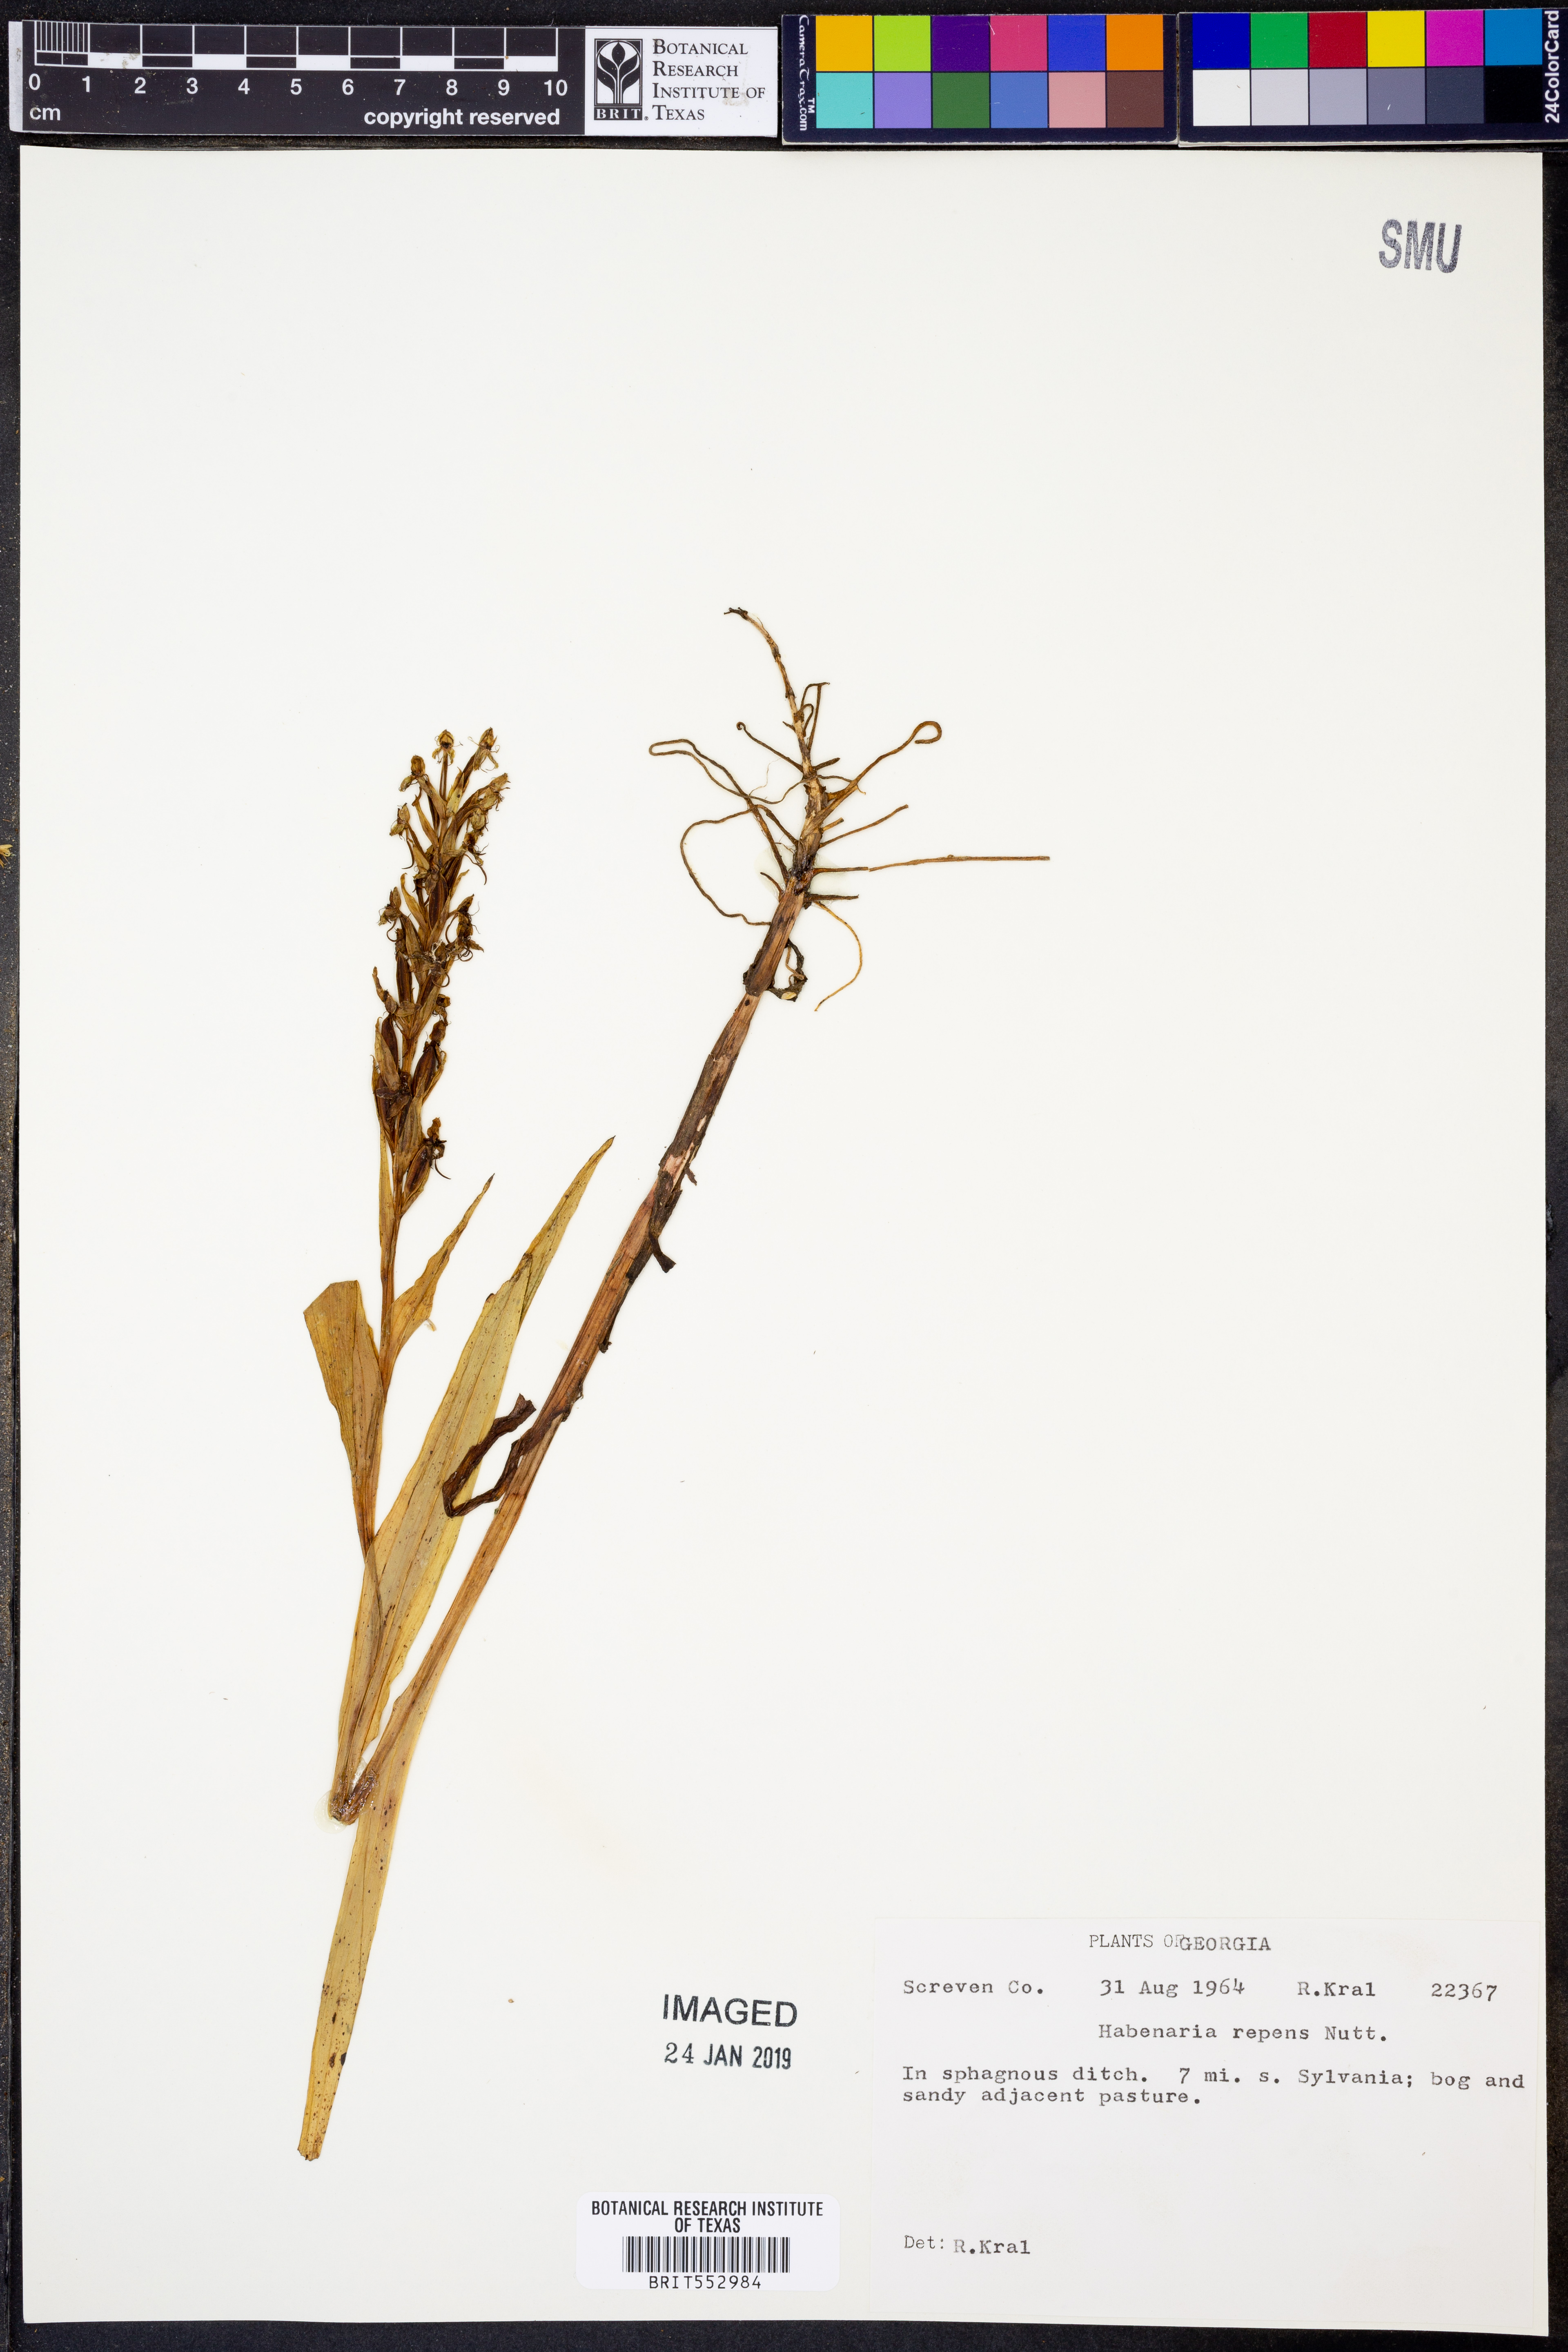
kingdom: Plantae
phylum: Tracheophyta
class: Liliopsida
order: Asparagales
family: Orchidaceae
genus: Habenaria
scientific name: Habenaria repens
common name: Water orchid
